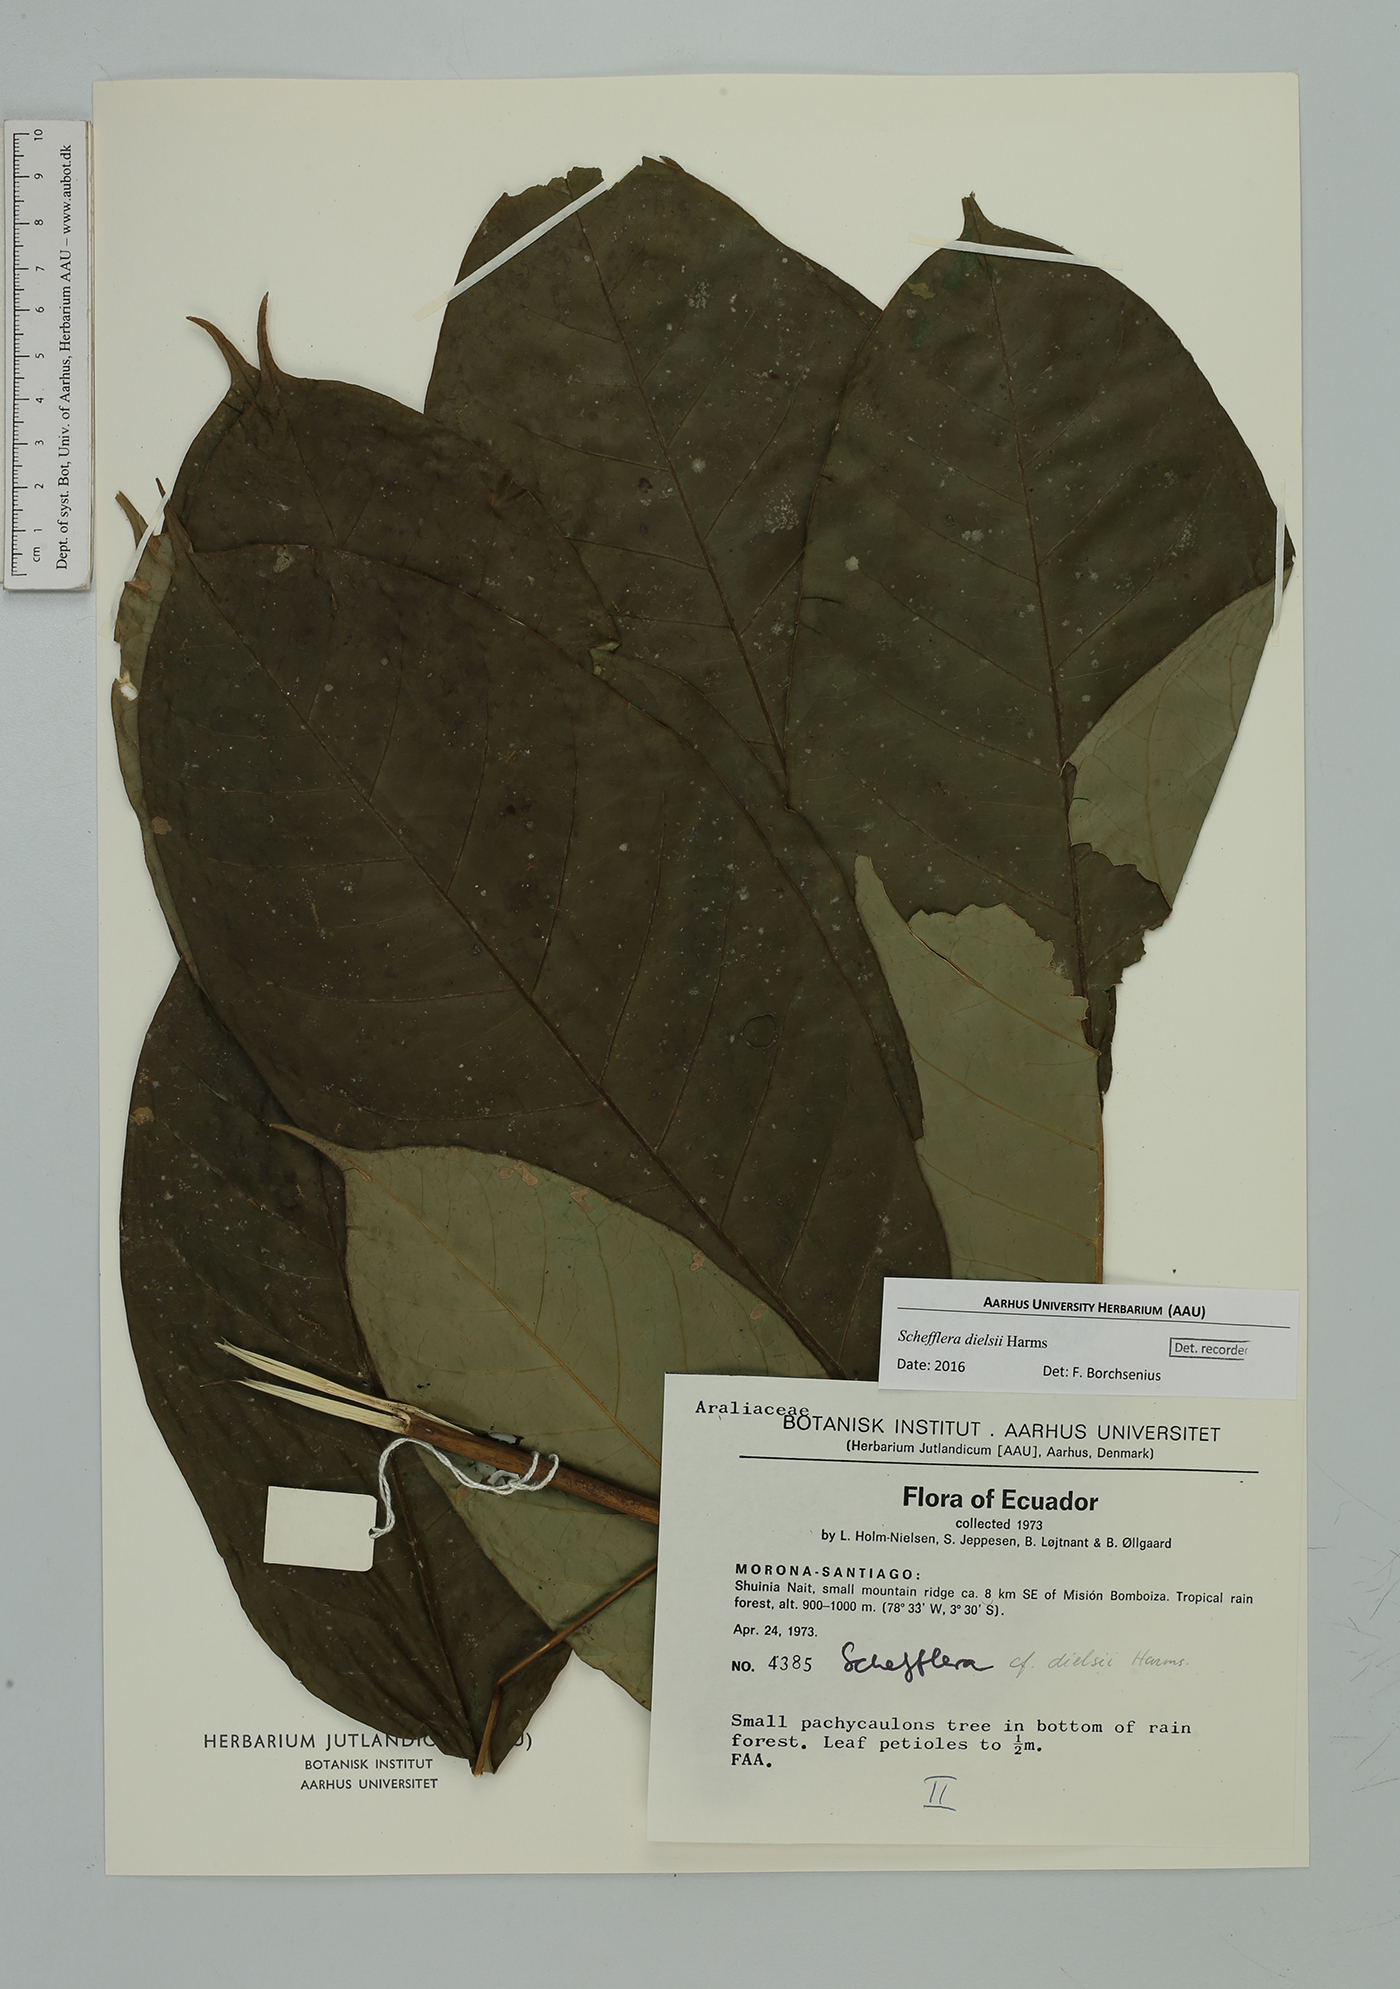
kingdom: Plantae
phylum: Tracheophyta
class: Magnoliopsida
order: Apiales
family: Araliaceae
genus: Sciodaphyllum
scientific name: Sciodaphyllum dielsii
